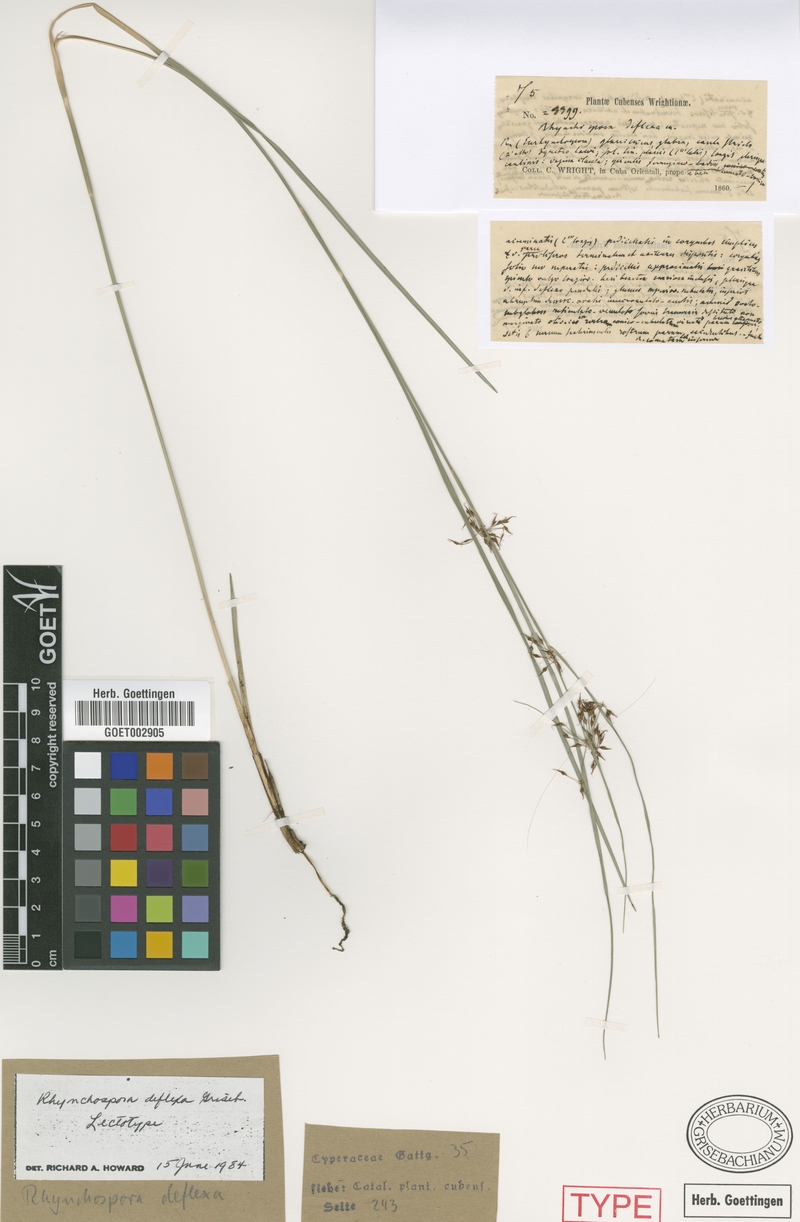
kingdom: Plantae
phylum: Tracheophyta
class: Liliopsida
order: Poales
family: Cyperaceae
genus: Rhynchospora
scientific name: Rhynchospora cubensis
